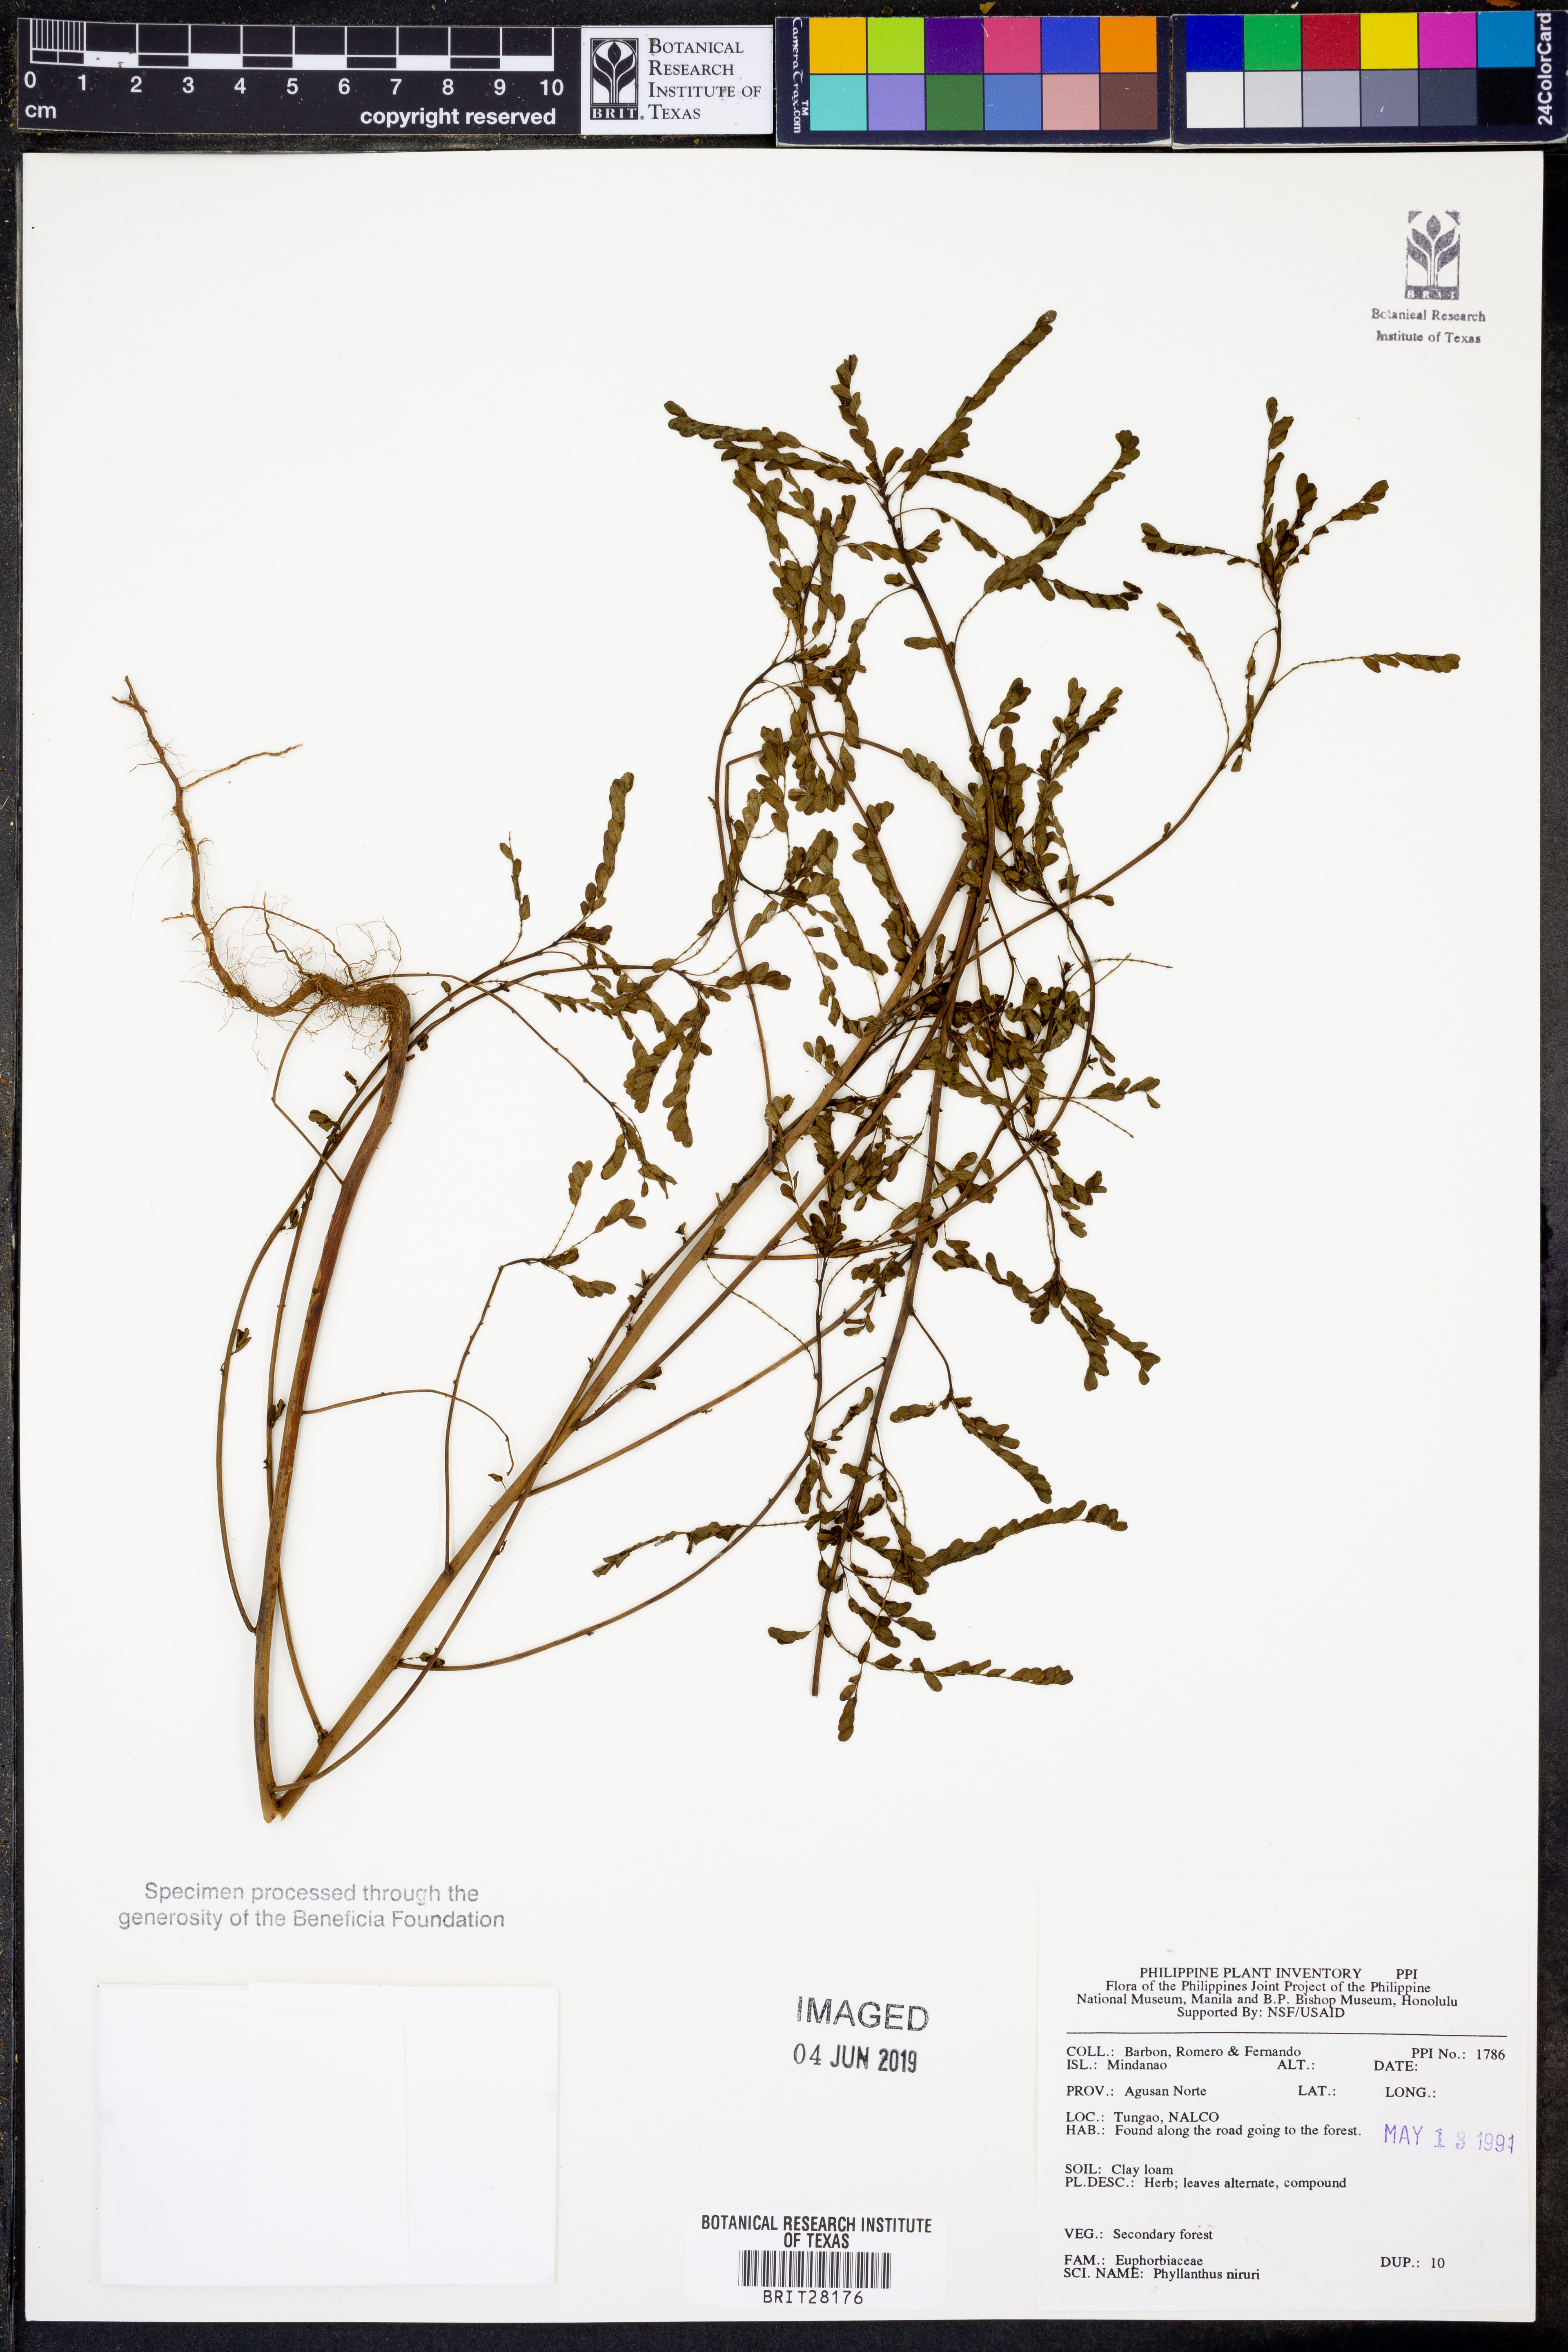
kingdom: Plantae
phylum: Tracheophyta
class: Magnoliopsida
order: Malpighiales
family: Phyllanthaceae
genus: Phyllanthus
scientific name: Phyllanthus niruri
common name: Niruri
